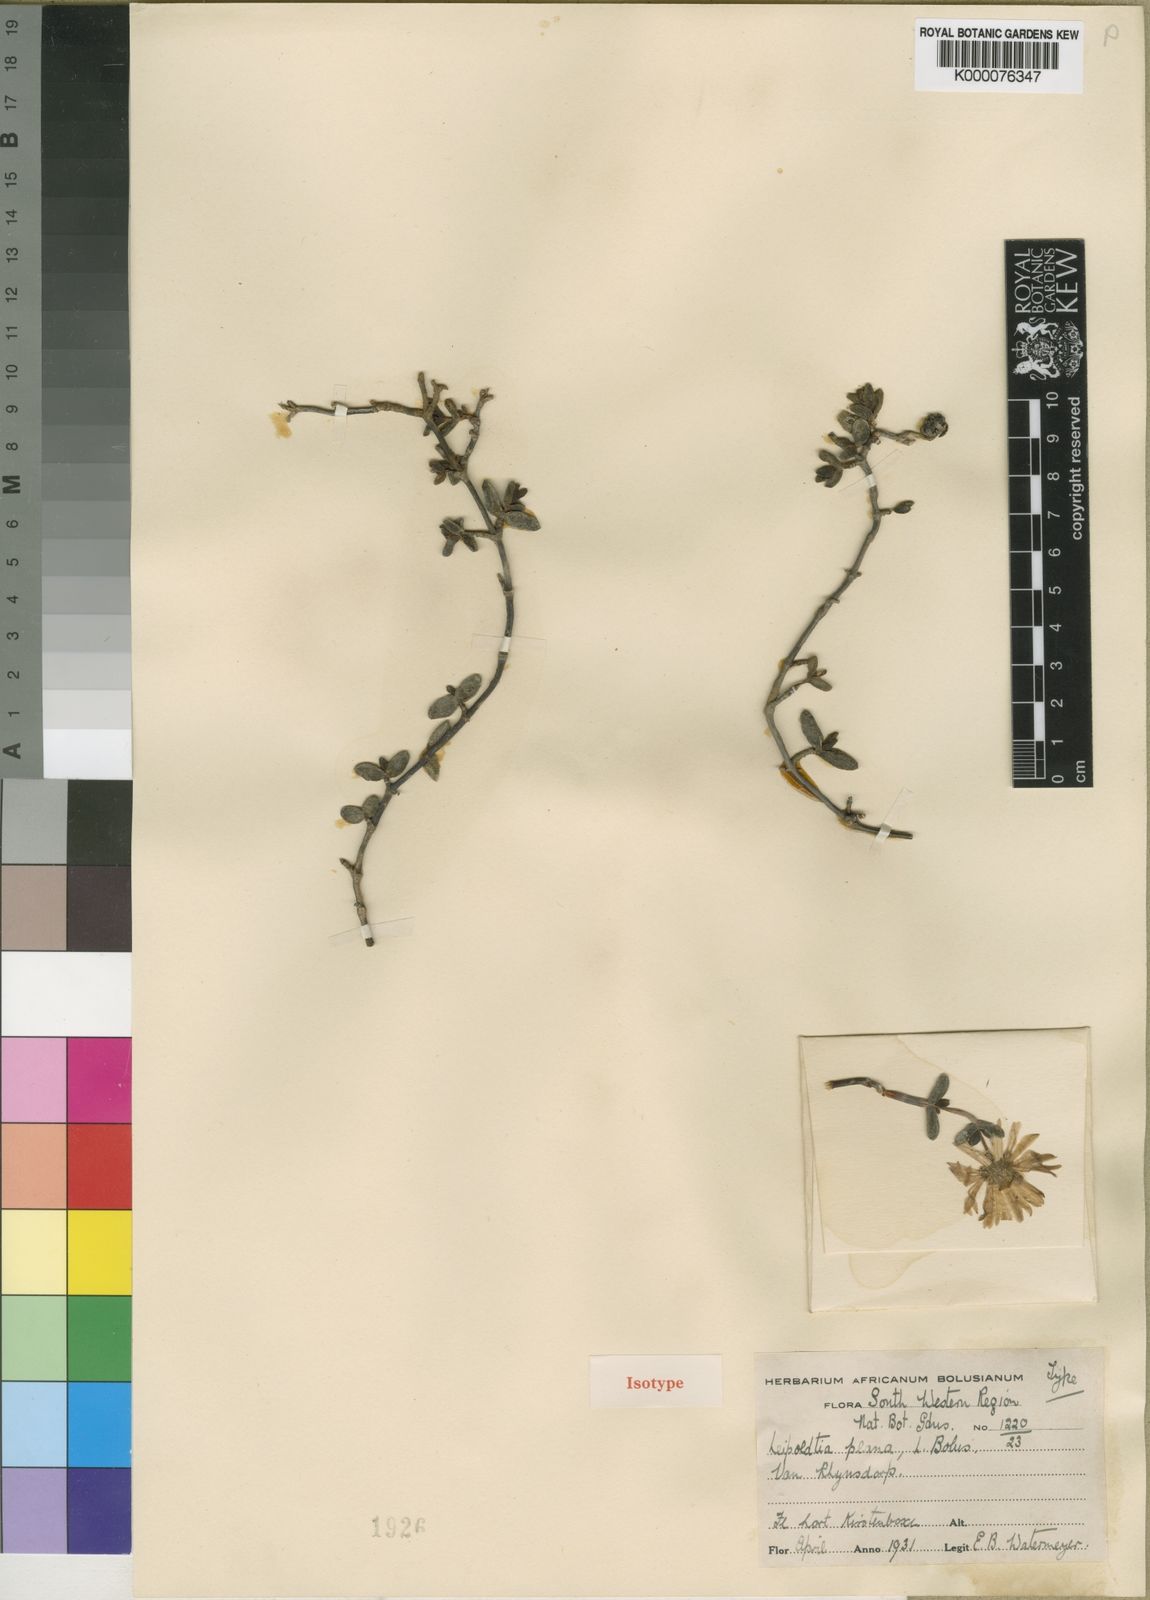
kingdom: Plantae
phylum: Tracheophyta
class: Magnoliopsida
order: Caryophyllales
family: Aizoaceae
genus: Hallianthus
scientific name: Hallianthus planus
